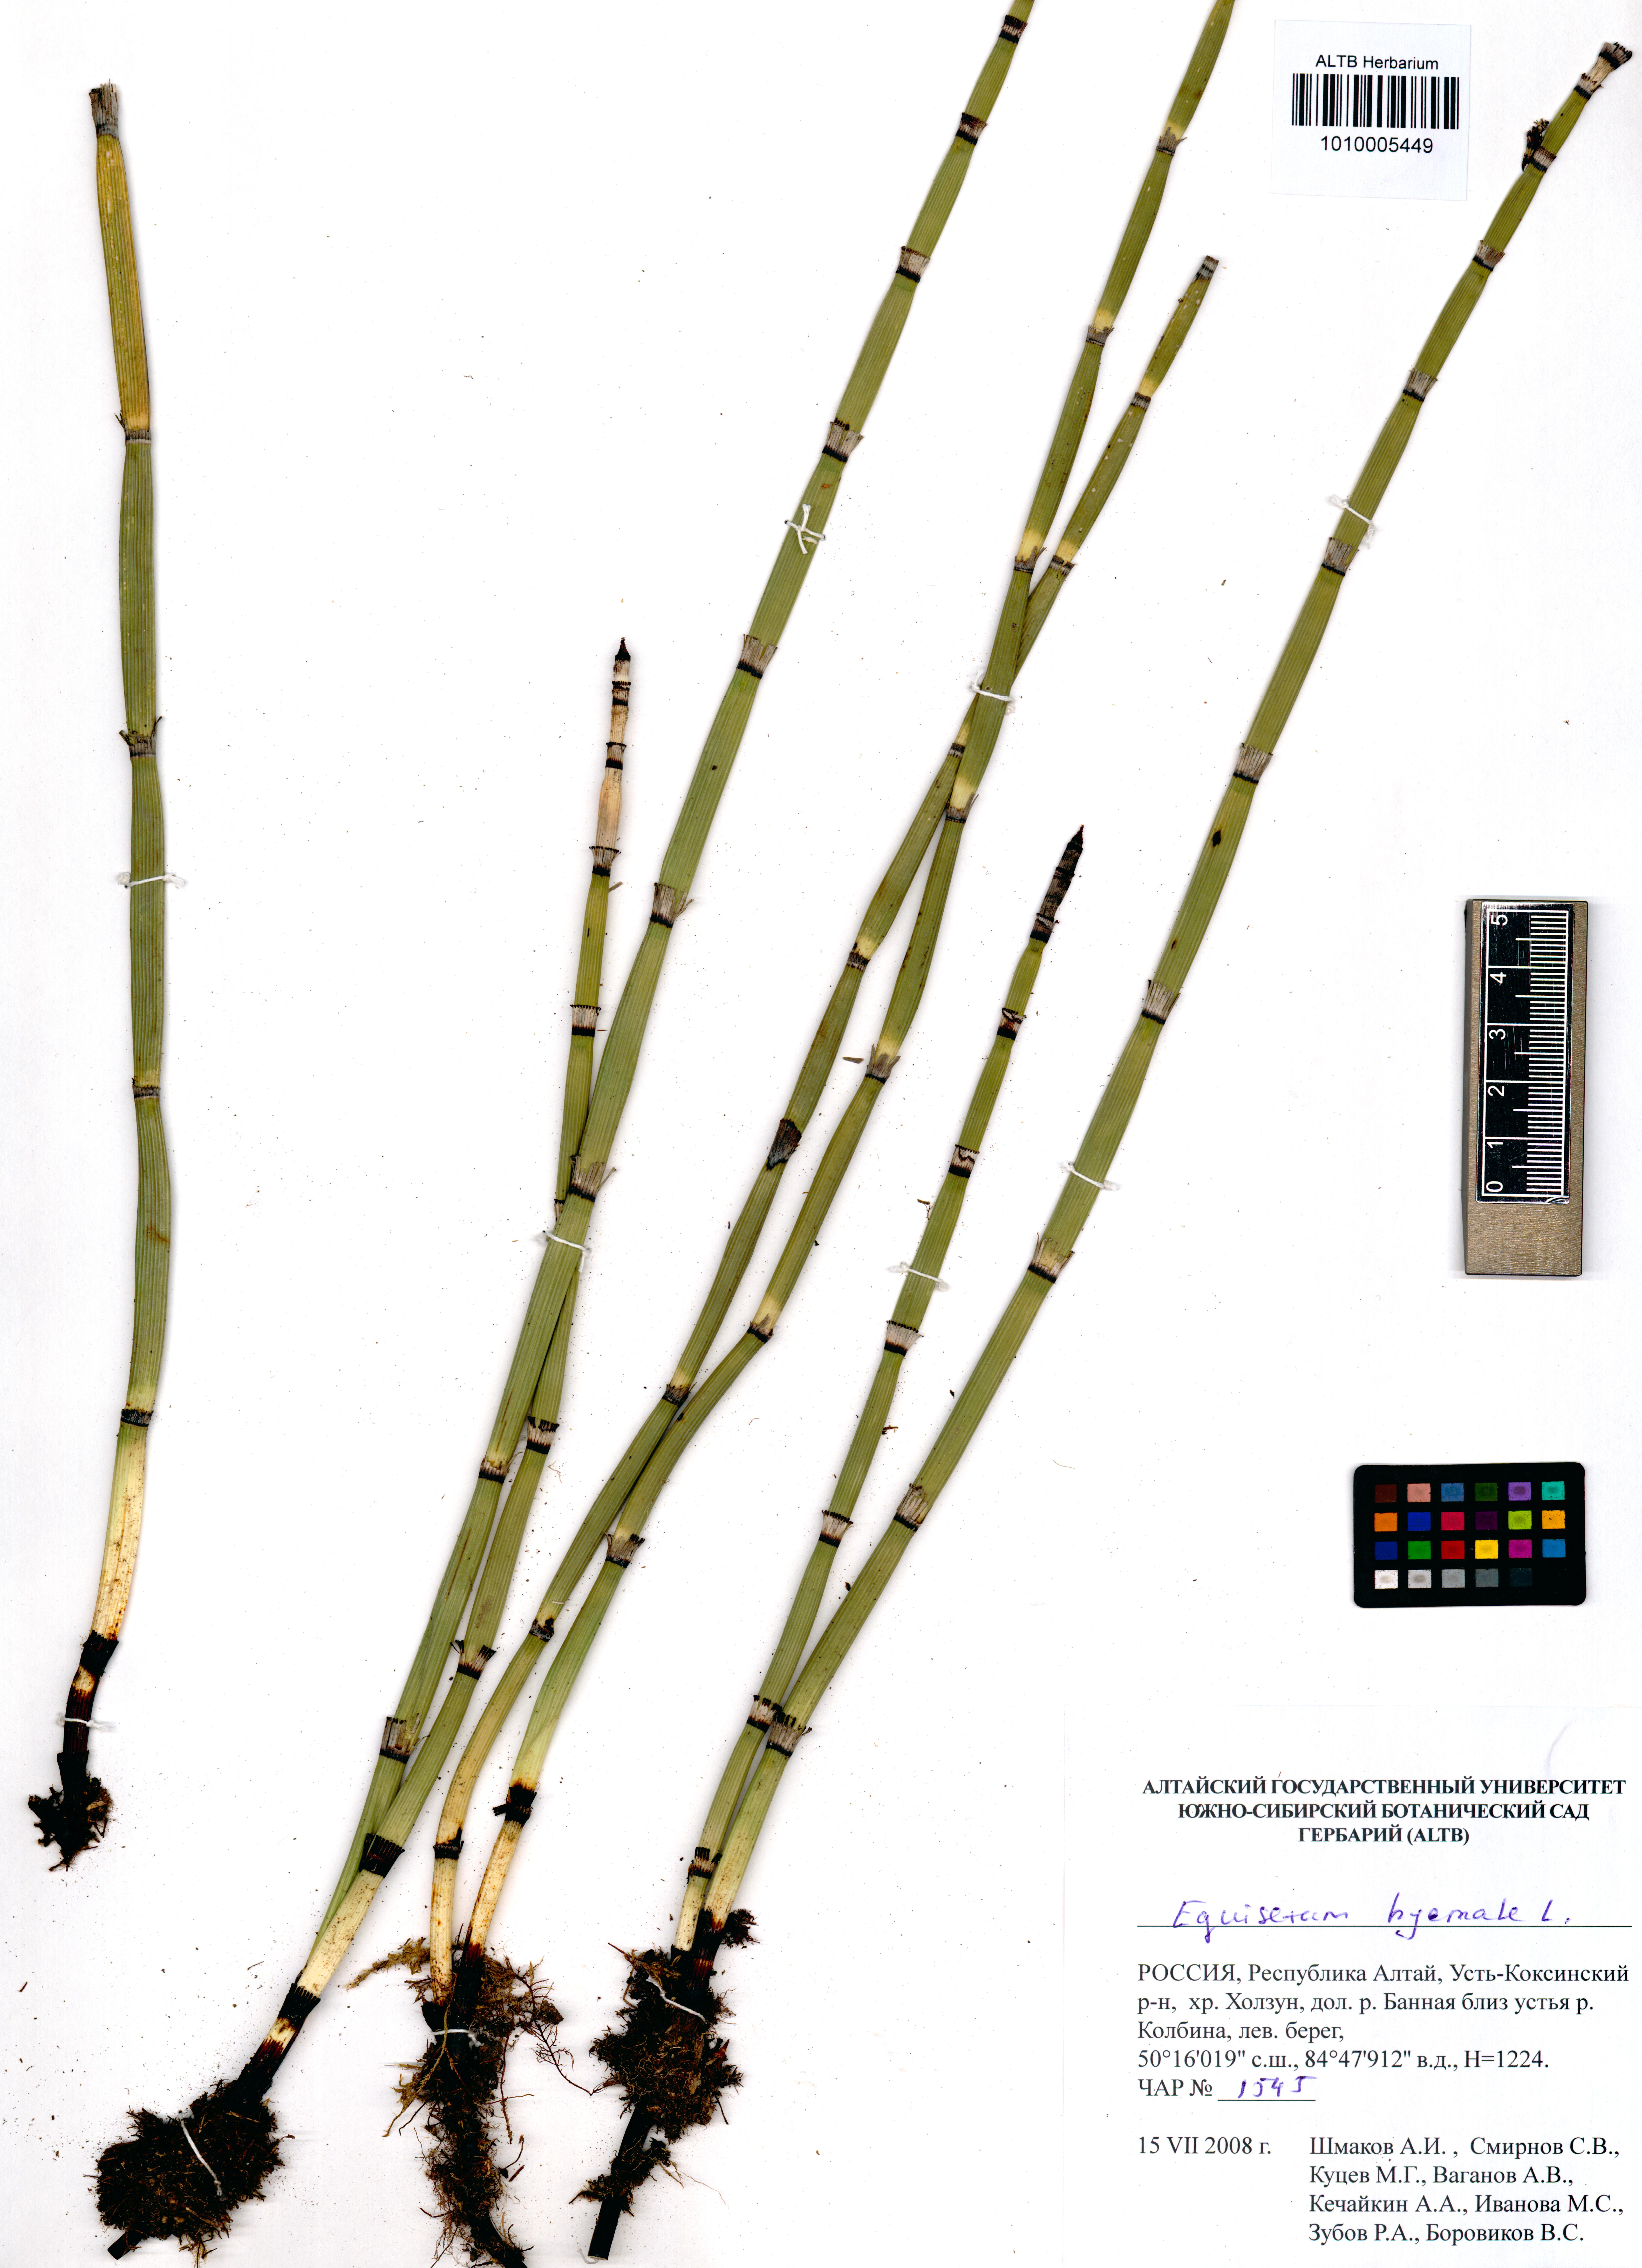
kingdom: Plantae
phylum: Tracheophyta
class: Polypodiopsida
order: Equisetales
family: Equisetaceae
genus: Equisetum
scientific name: Equisetum hyemale
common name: Rough horsetail
